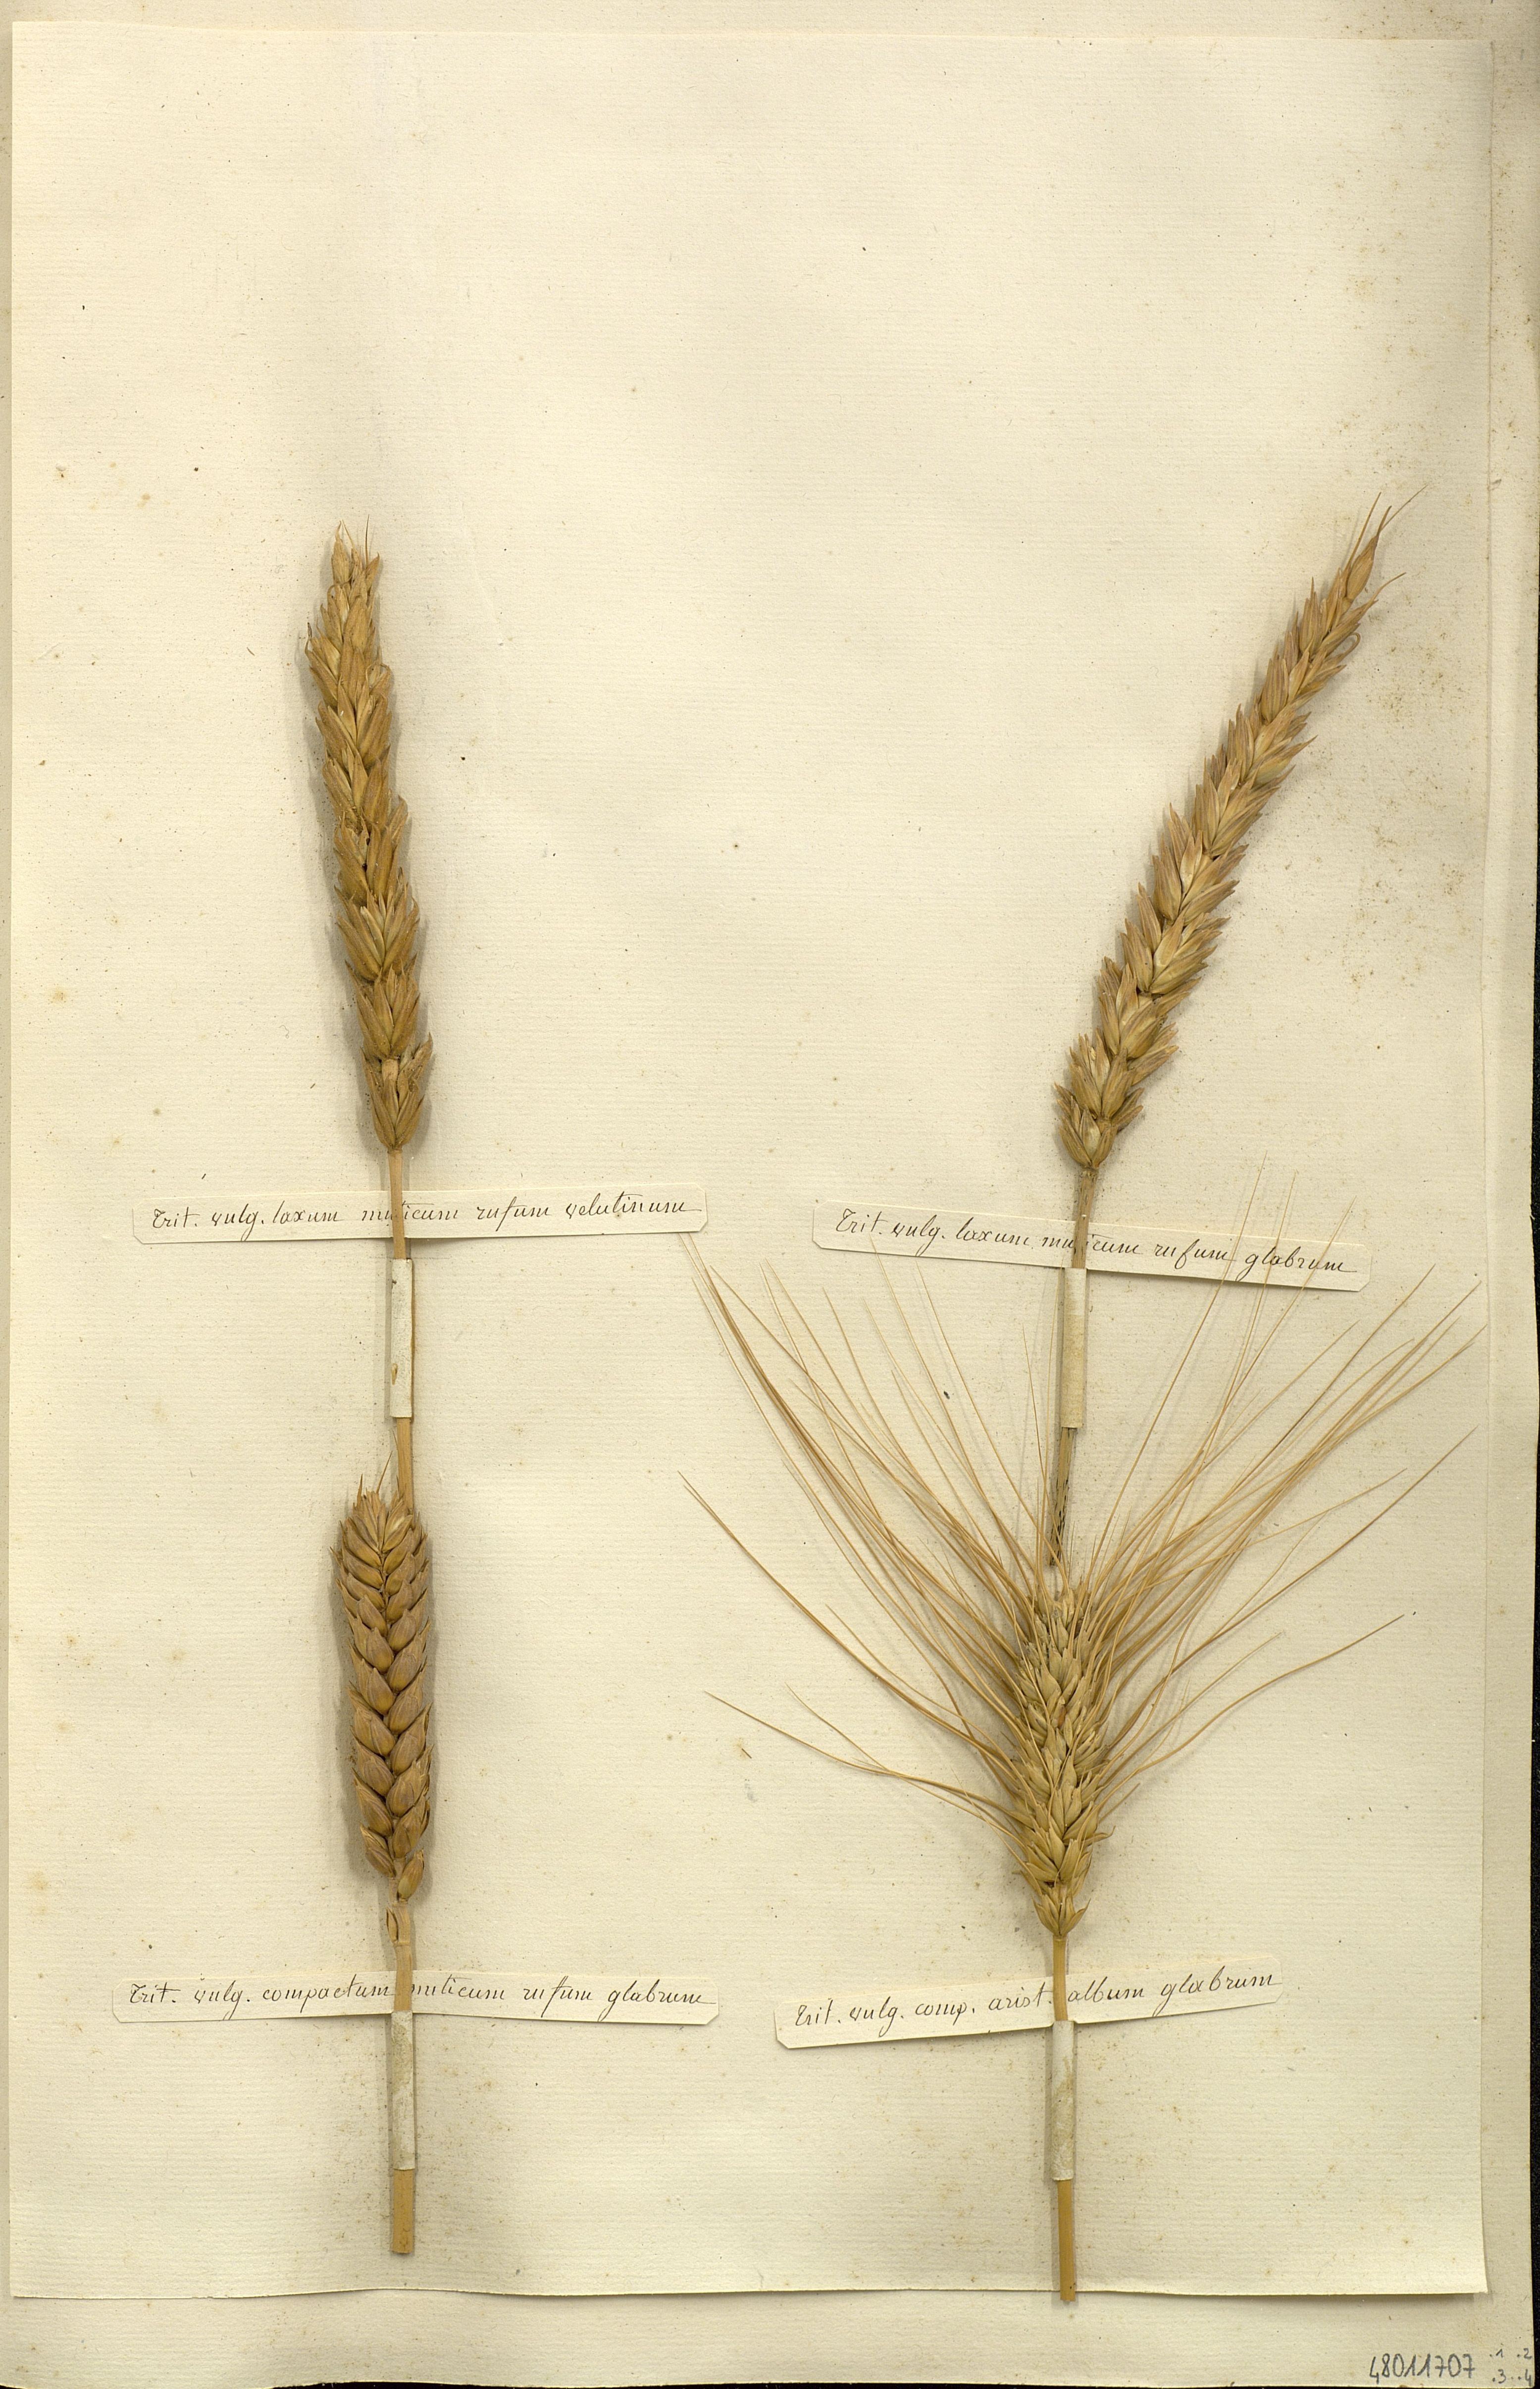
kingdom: Plantae
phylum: Tracheophyta
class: Liliopsida
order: Poales
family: Poaceae
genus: Triticum
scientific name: Triticum vulgare
